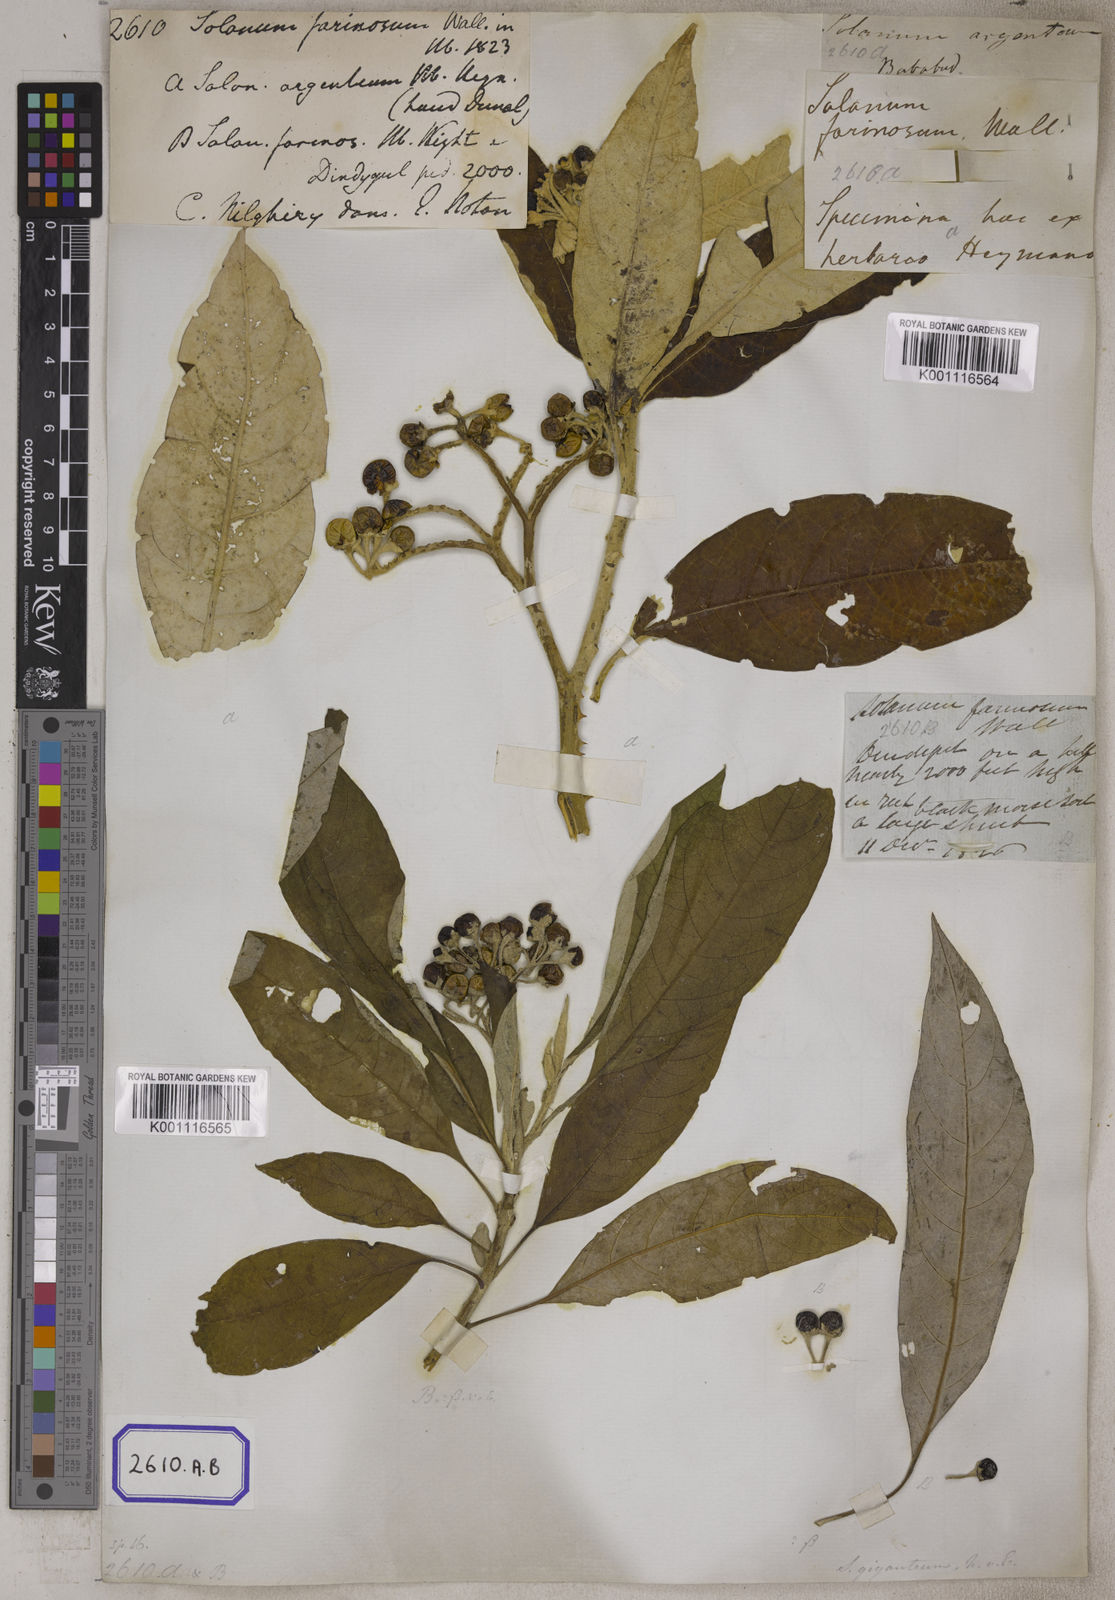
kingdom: Plantae
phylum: Tracheophyta
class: Magnoliopsida
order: Solanales
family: Solanaceae
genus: Solanum
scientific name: Solanum giganteum
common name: Healing-leaf-tree
